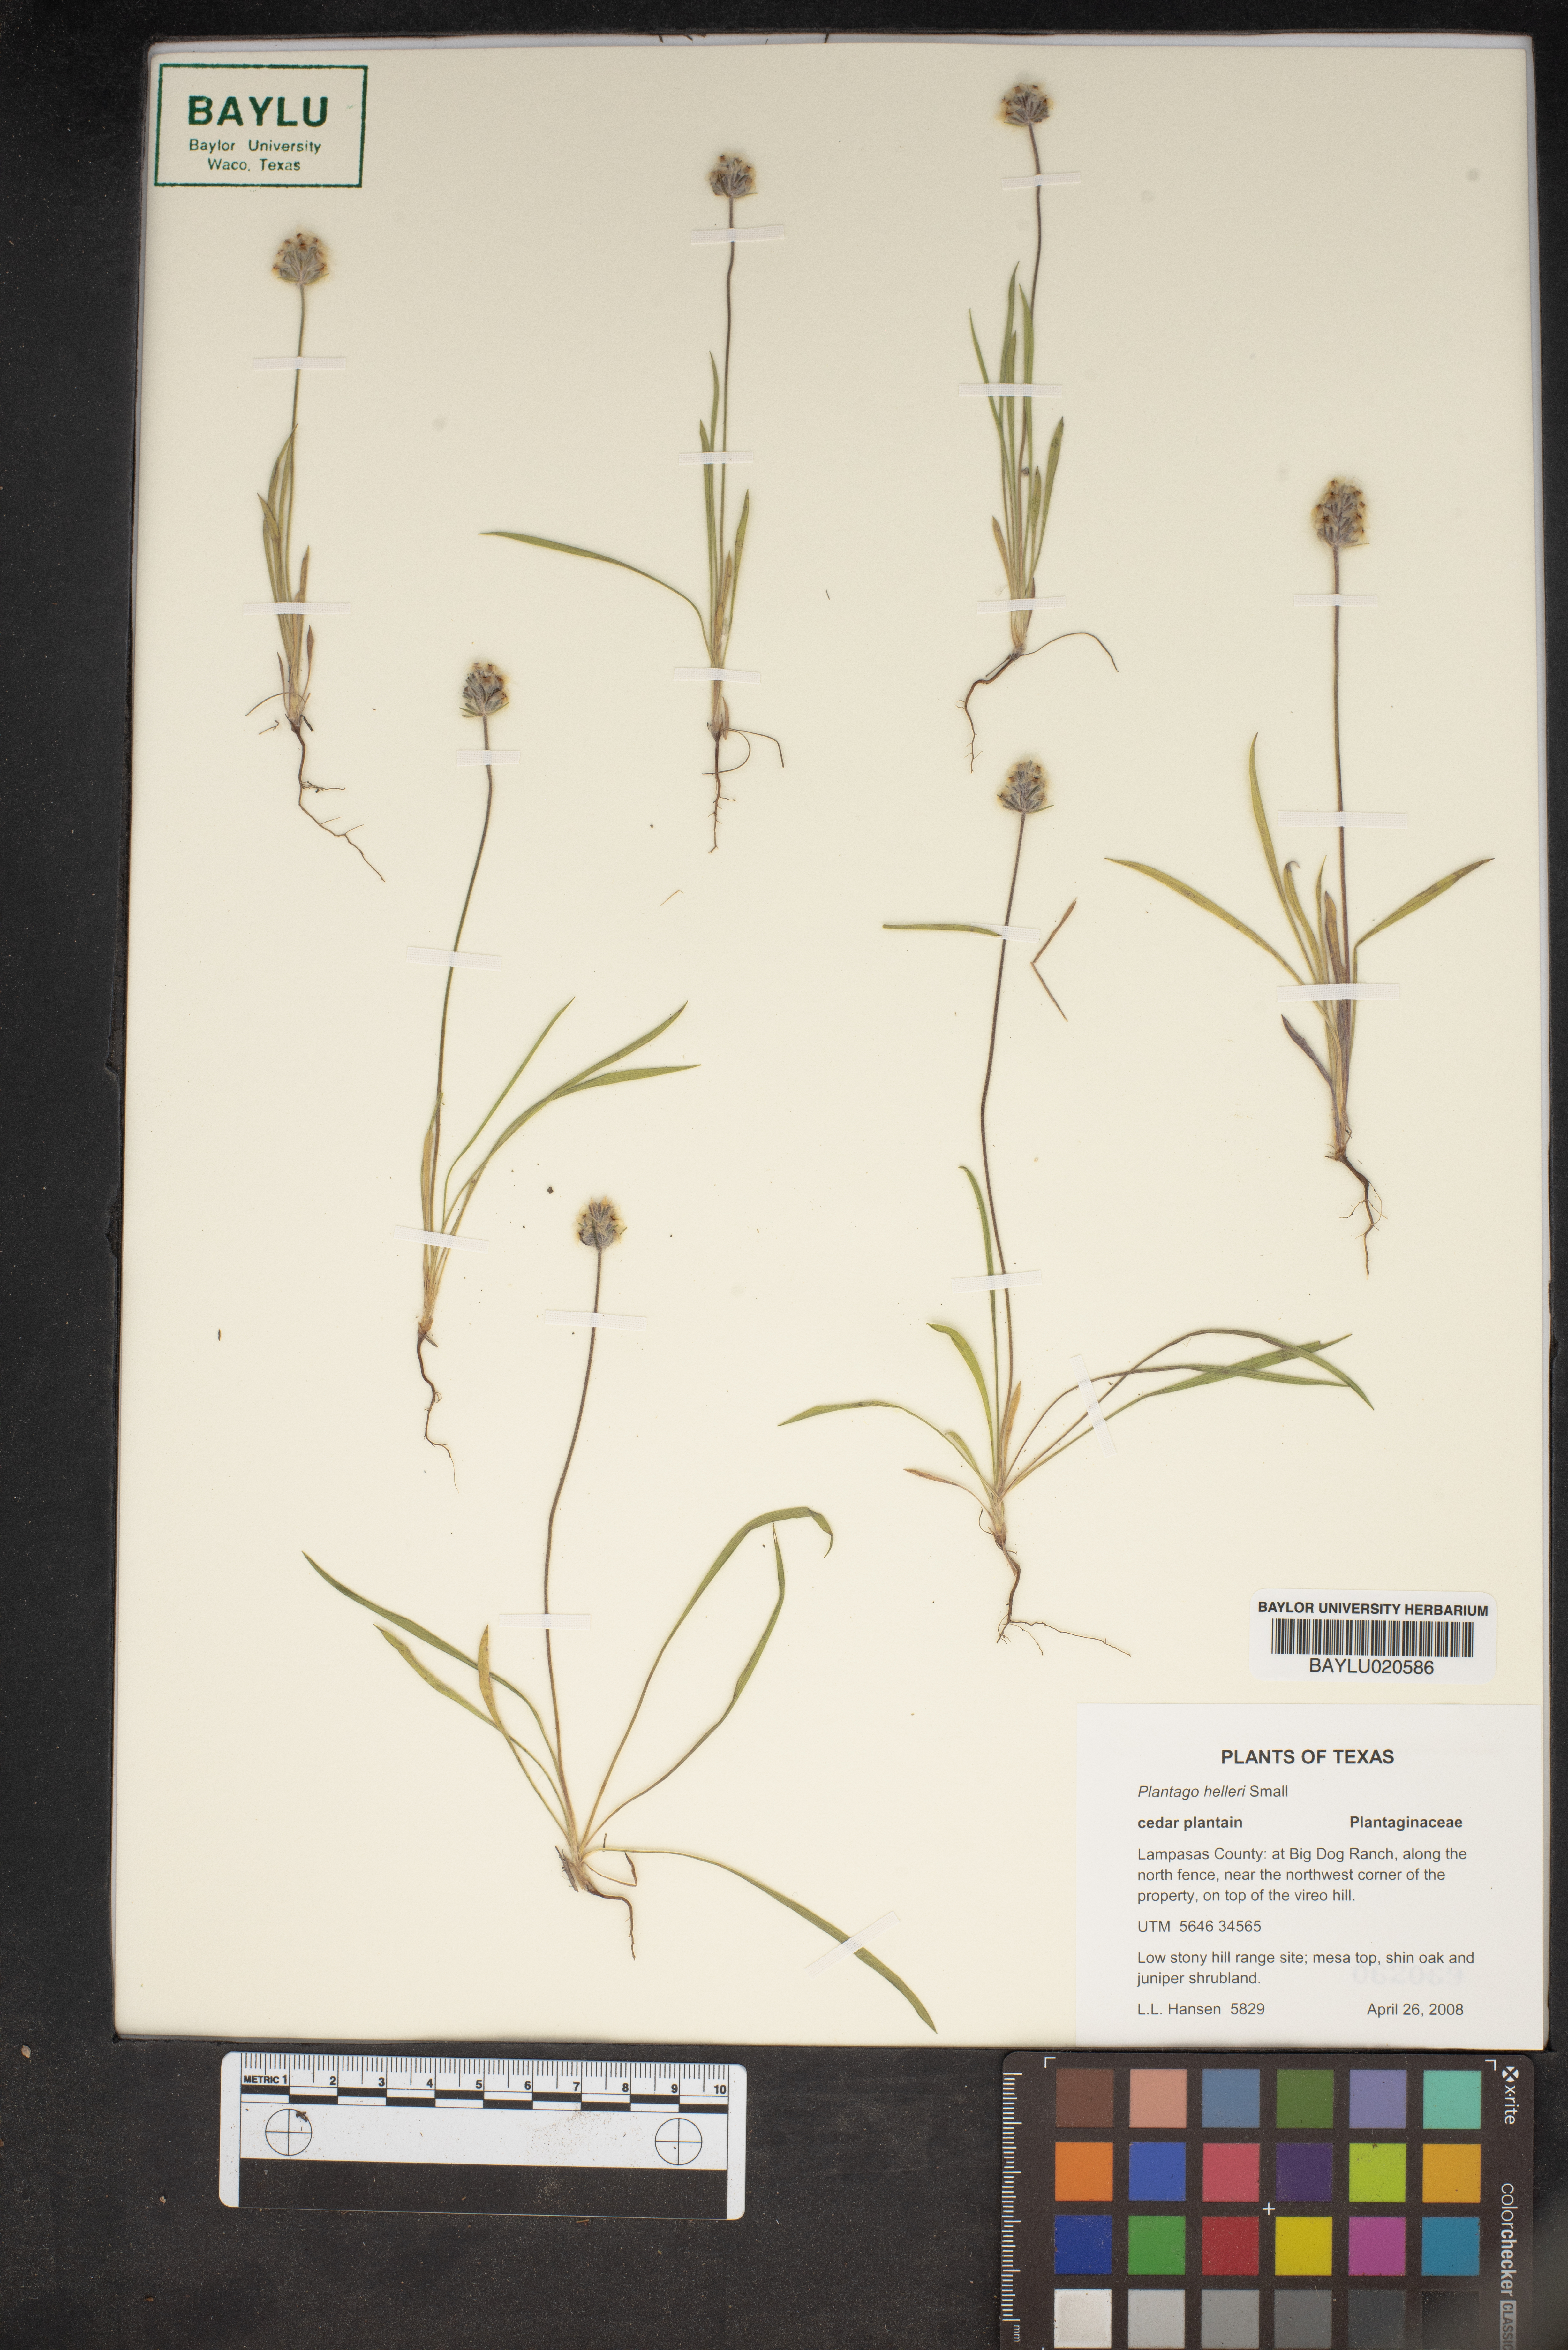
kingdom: Plantae
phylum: Tracheophyta
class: Magnoliopsida
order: Lamiales
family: Plantaginaceae
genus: Plantago
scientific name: Plantago helleri
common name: Heller's plantain
